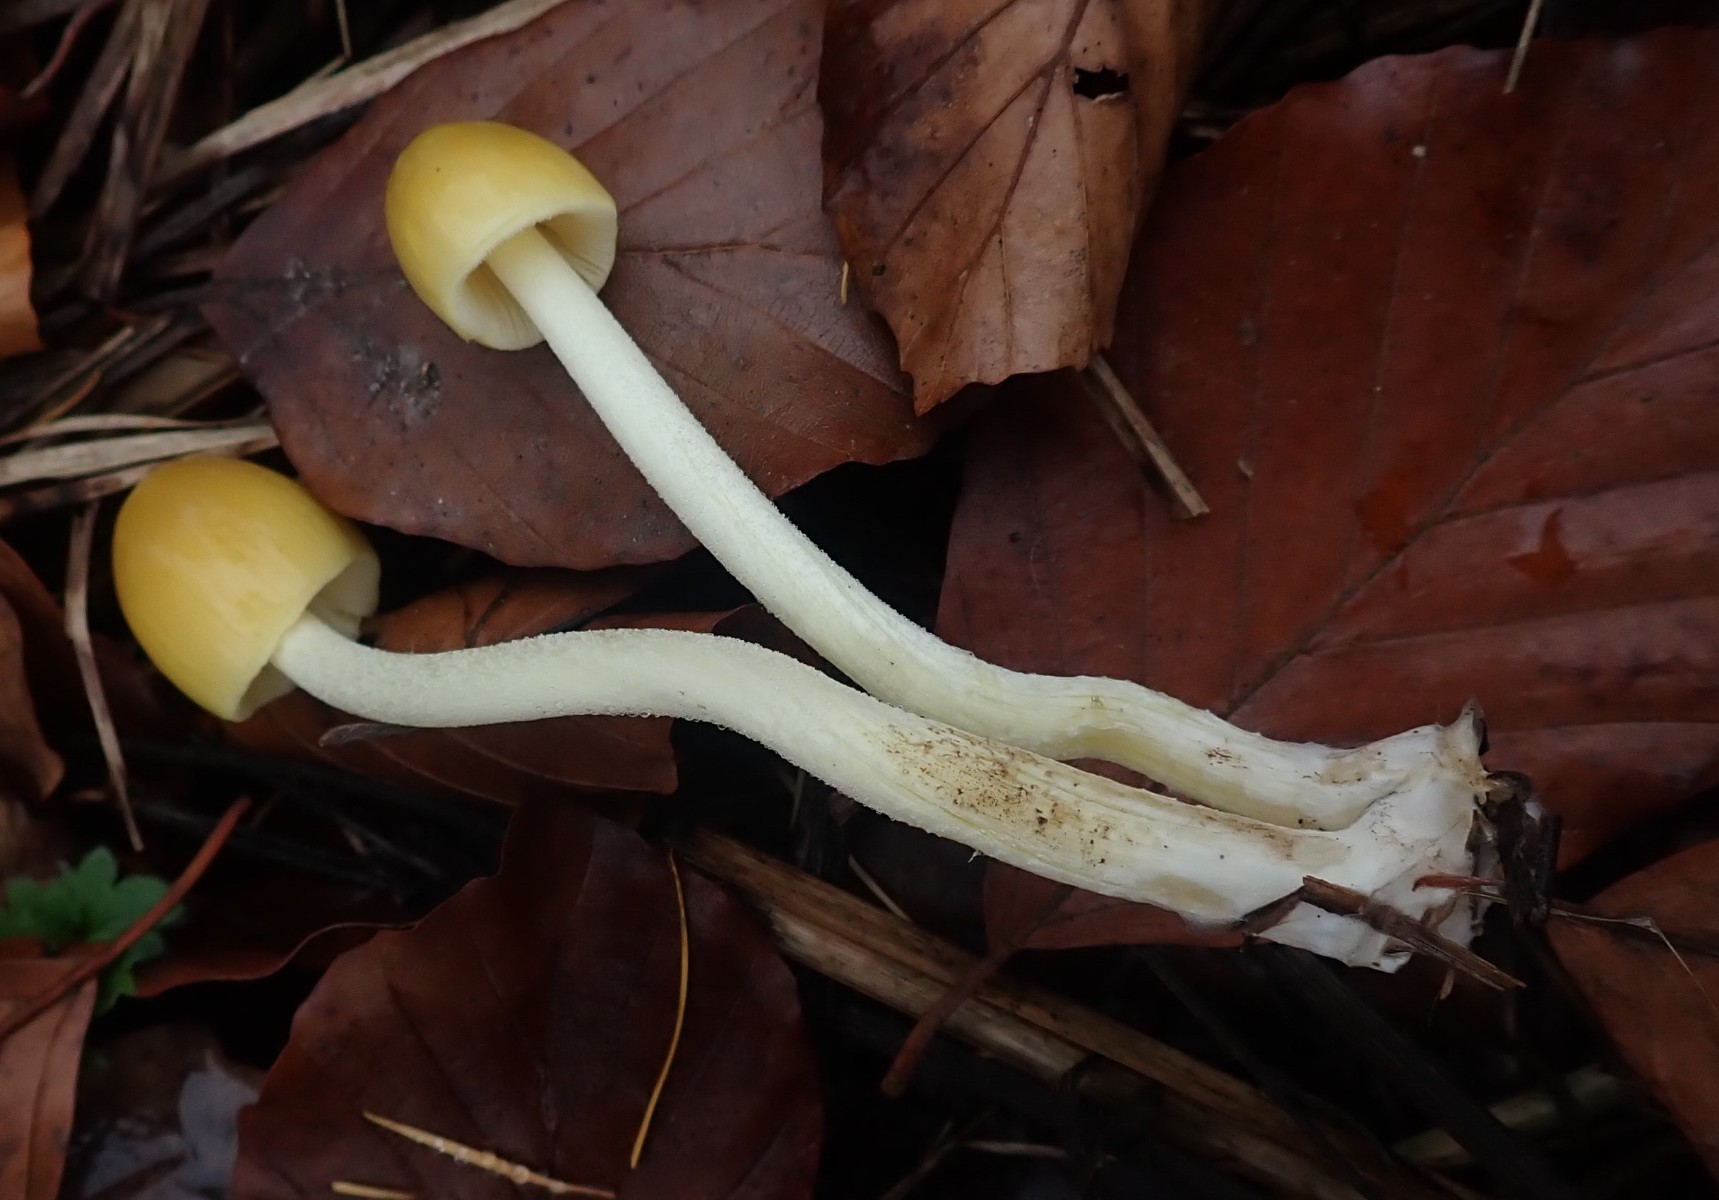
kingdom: Fungi
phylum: Basidiomycota
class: Agaricomycetes
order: Agaricales
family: Bolbitiaceae
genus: Bolbitius
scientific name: Bolbitius titubans
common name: almindelig gulhat
